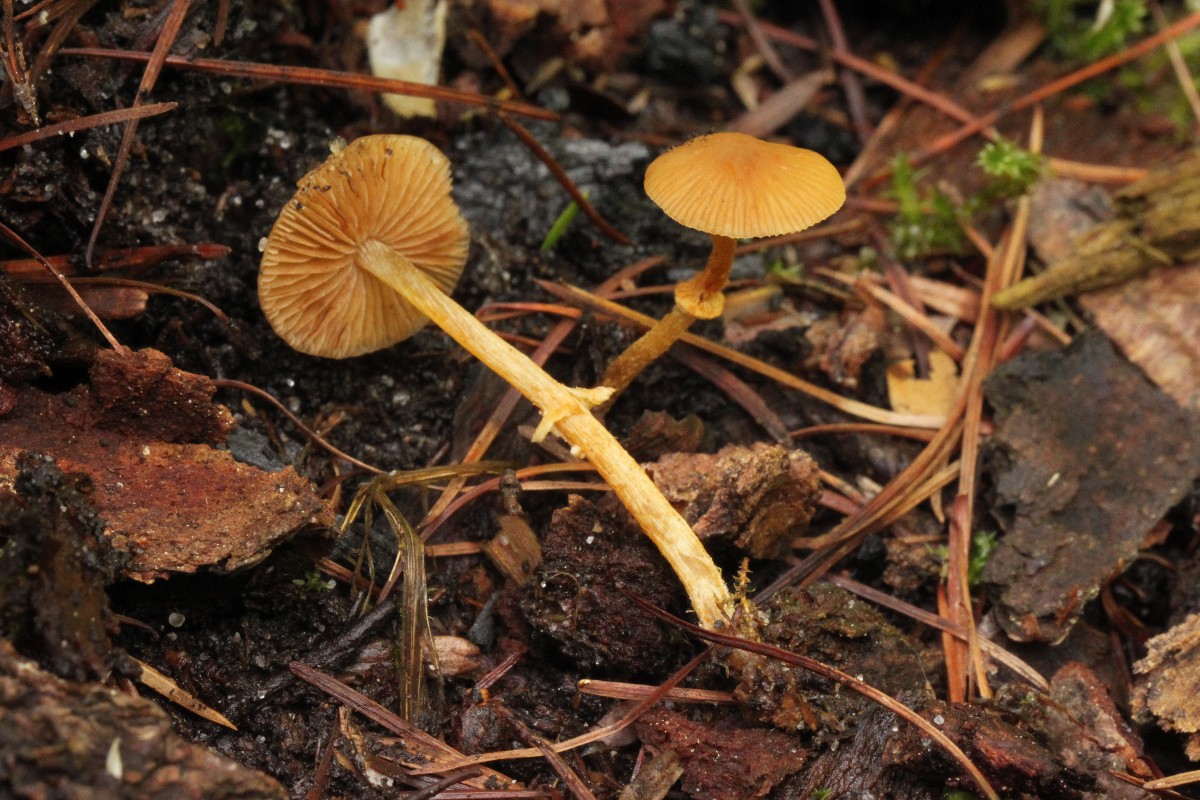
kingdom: Fungi
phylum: Basidiomycota
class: Agaricomycetes
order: Agaricales
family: Bolbitiaceae
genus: Pholiotina
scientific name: Pholiotina
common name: dansehat
